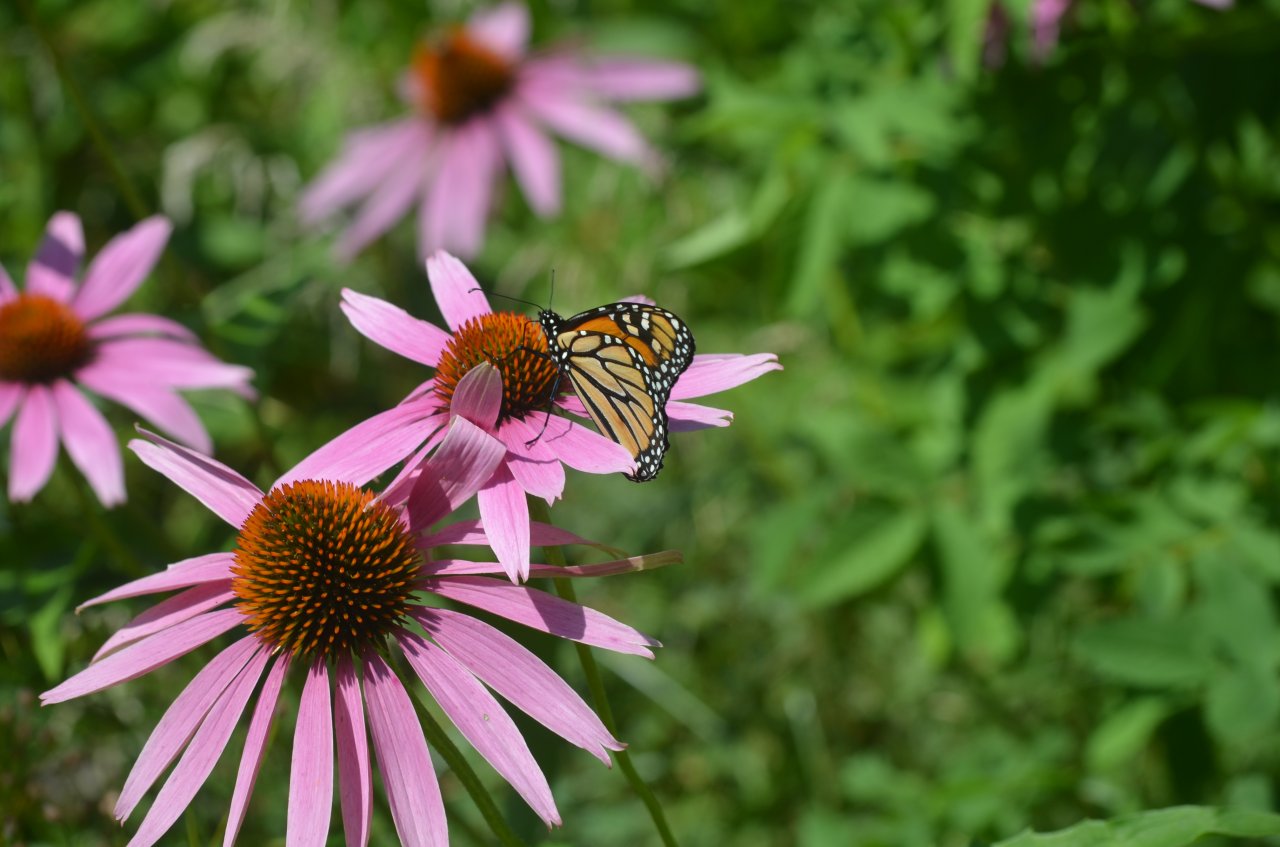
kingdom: Animalia
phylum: Arthropoda
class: Insecta
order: Lepidoptera
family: Nymphalidae
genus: Danaus
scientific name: Danaus plexippus
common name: Monarch
